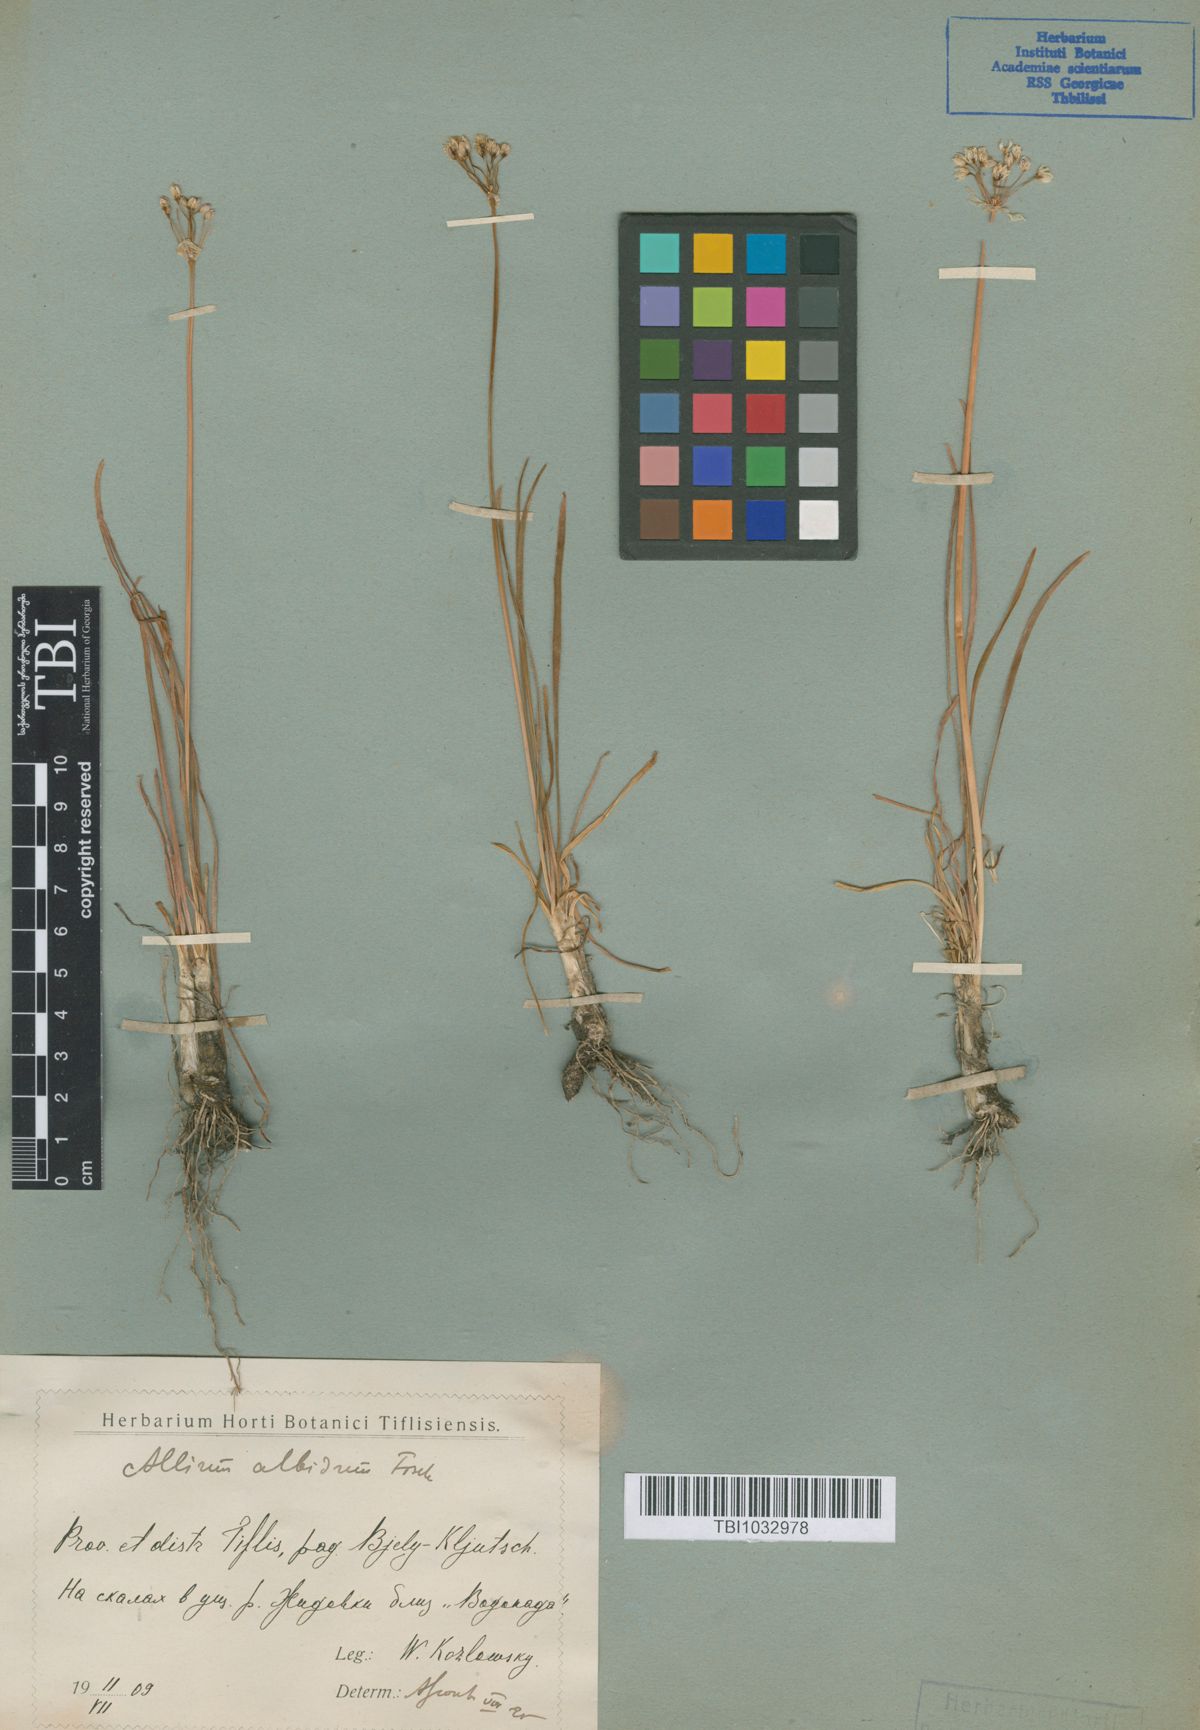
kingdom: Plantae
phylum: Tracheophyta
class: Liliopsida
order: Asparagales
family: Amaryllidaceae
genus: Allium
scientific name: Allium denudatum
